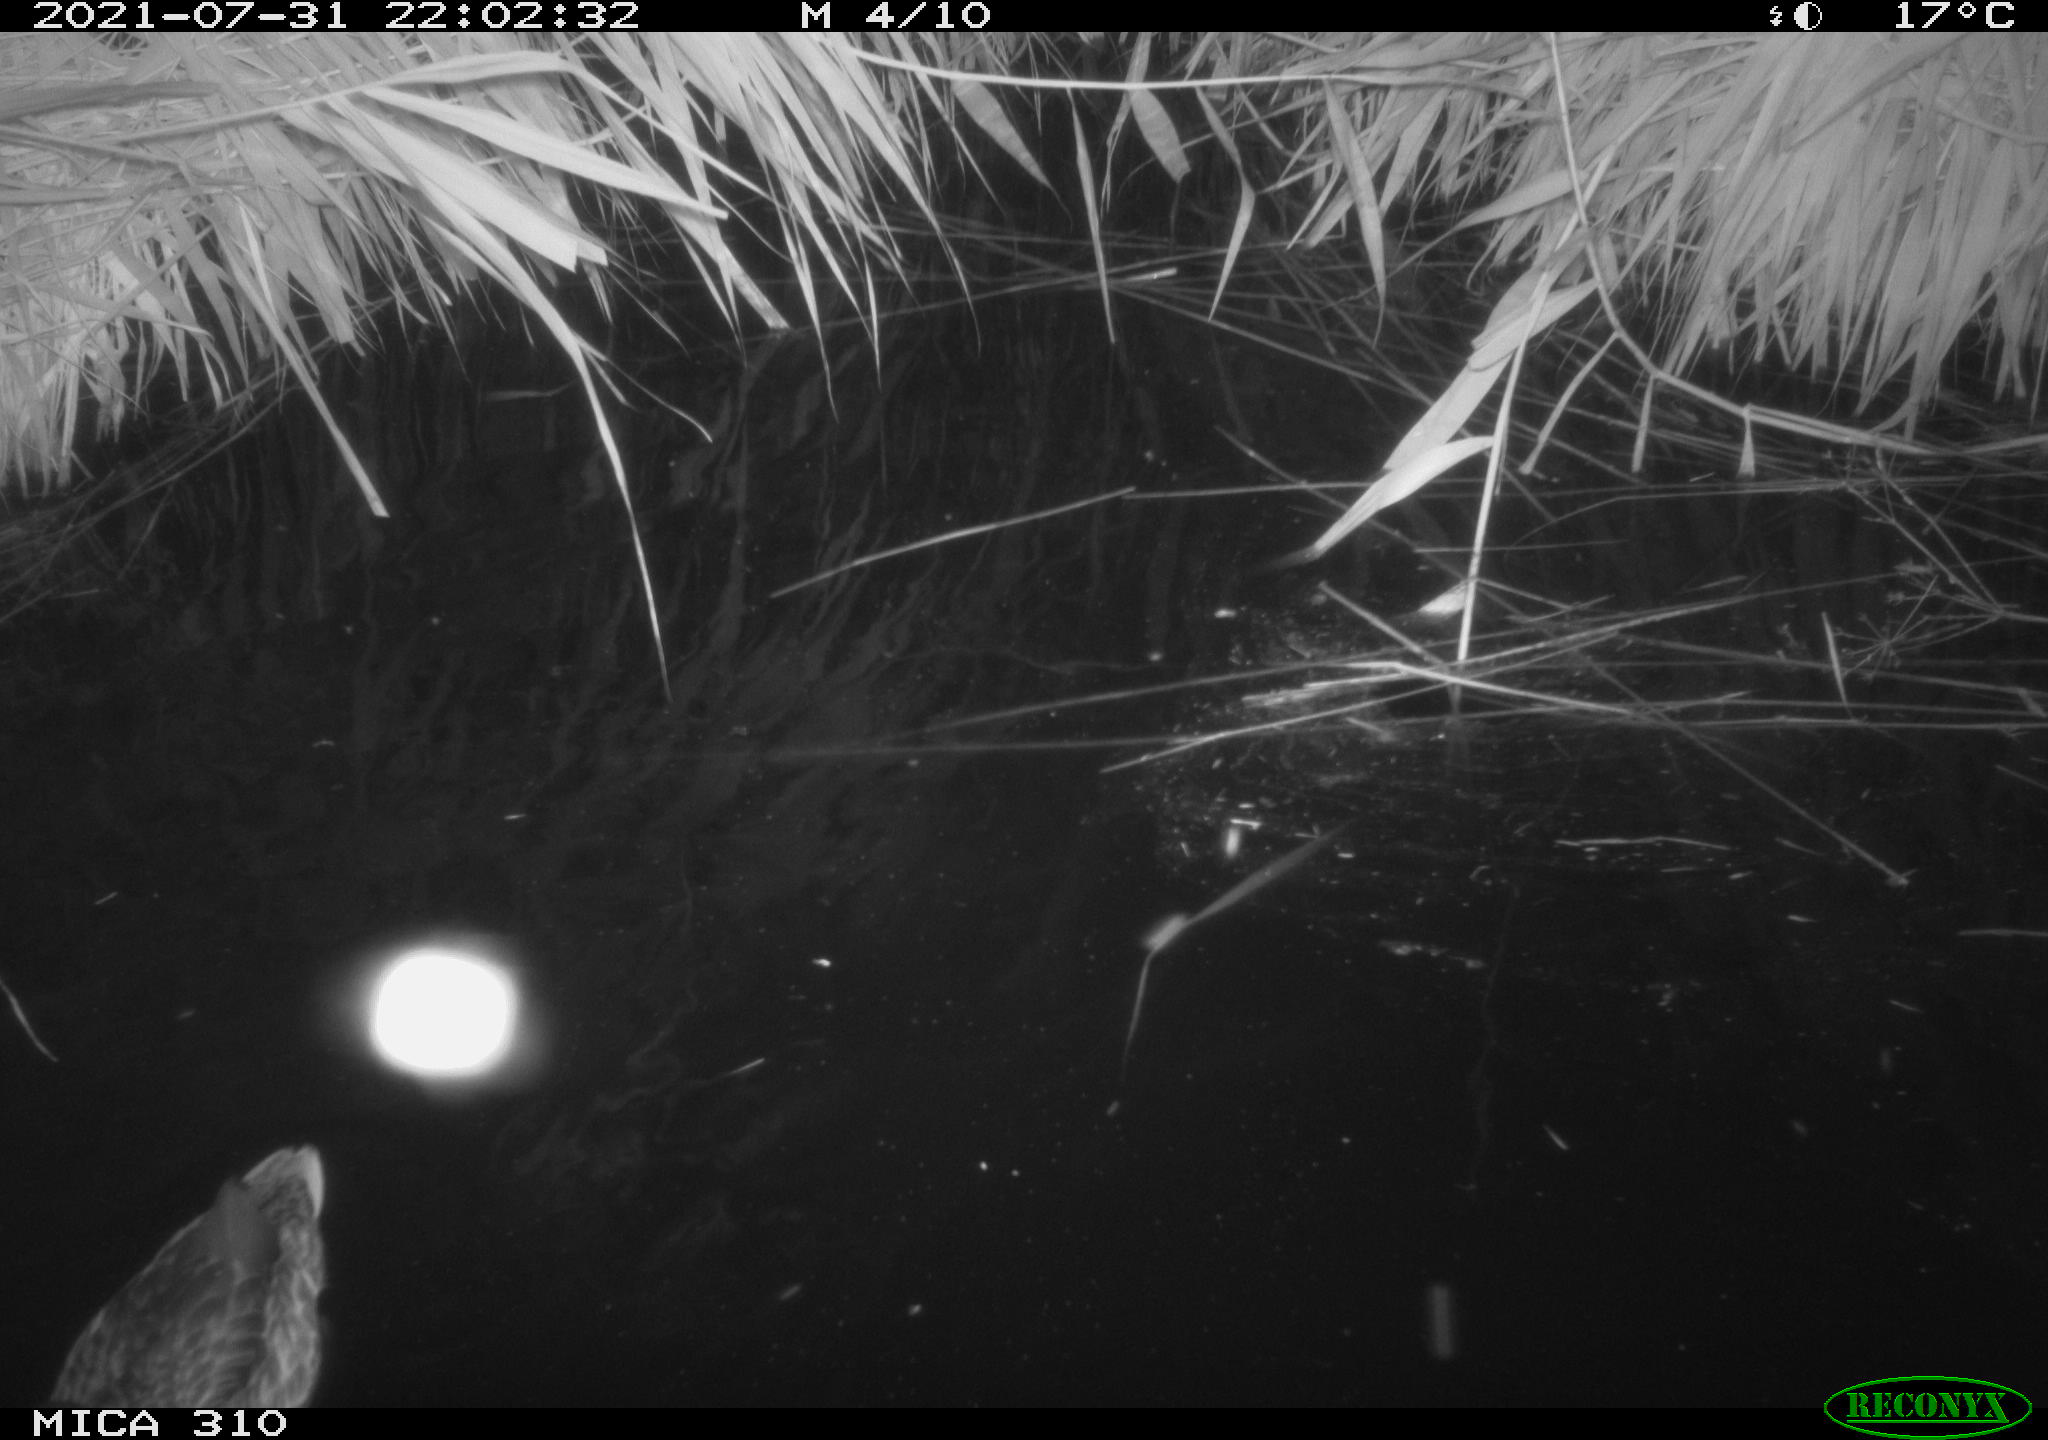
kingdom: Animalia
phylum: Chordata
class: Aves
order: Anseriformes
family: Anatidae
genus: Mareca
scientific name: Mareca strepera
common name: Gadwall
